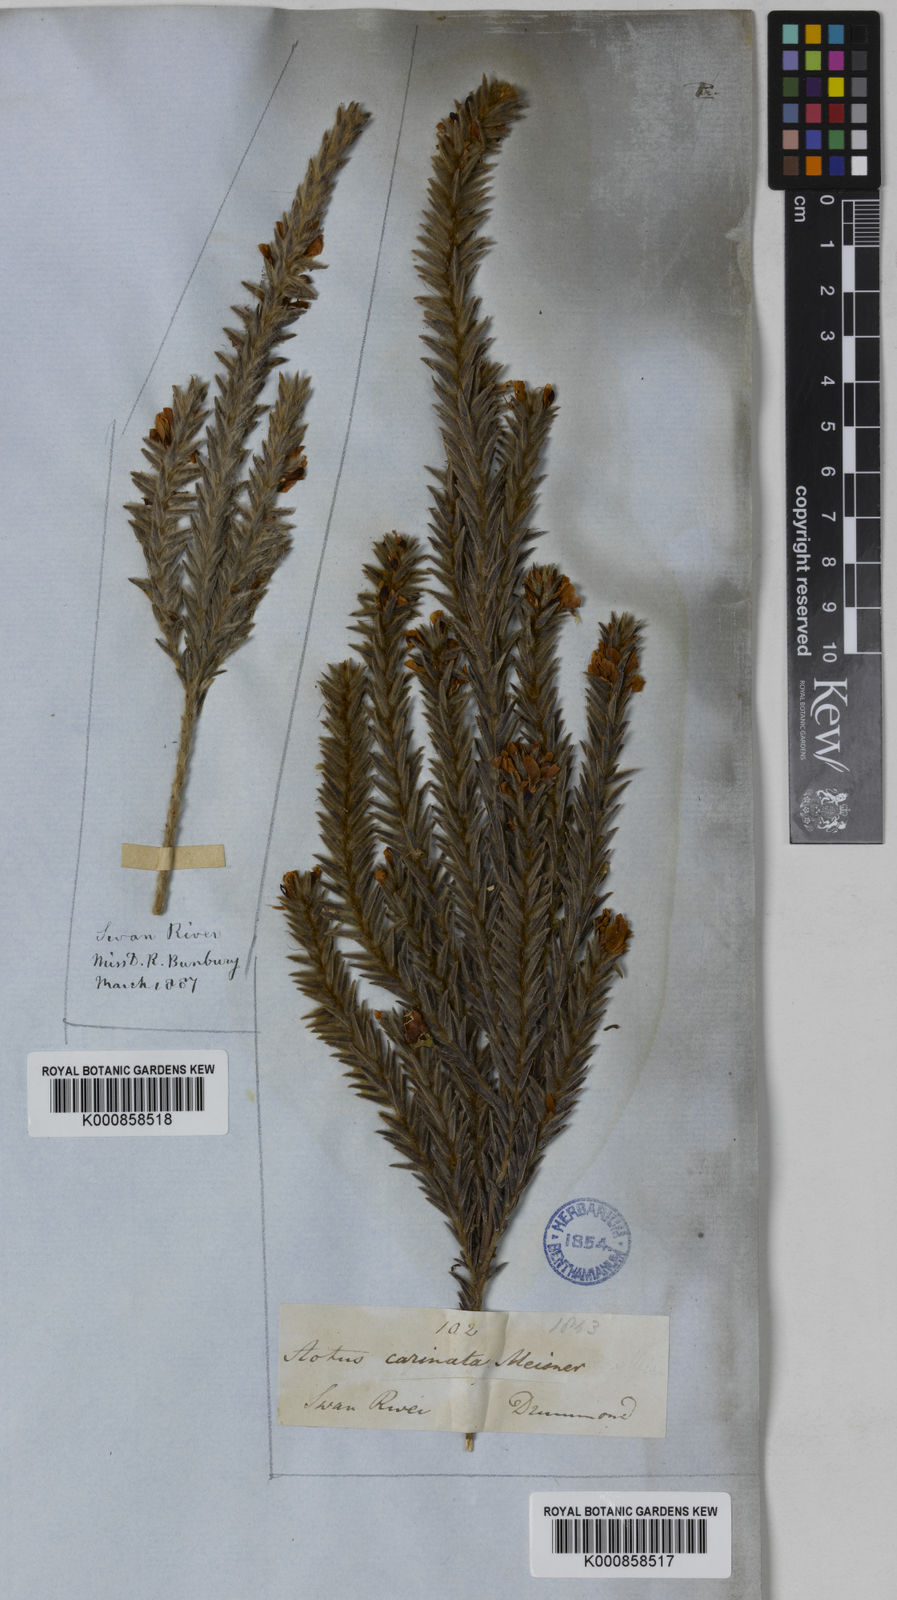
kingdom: Plantae
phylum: Tracheophyta
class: Magnoliopsida
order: Fabales
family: Fabaceae
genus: Aotus
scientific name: Aotus carinata
